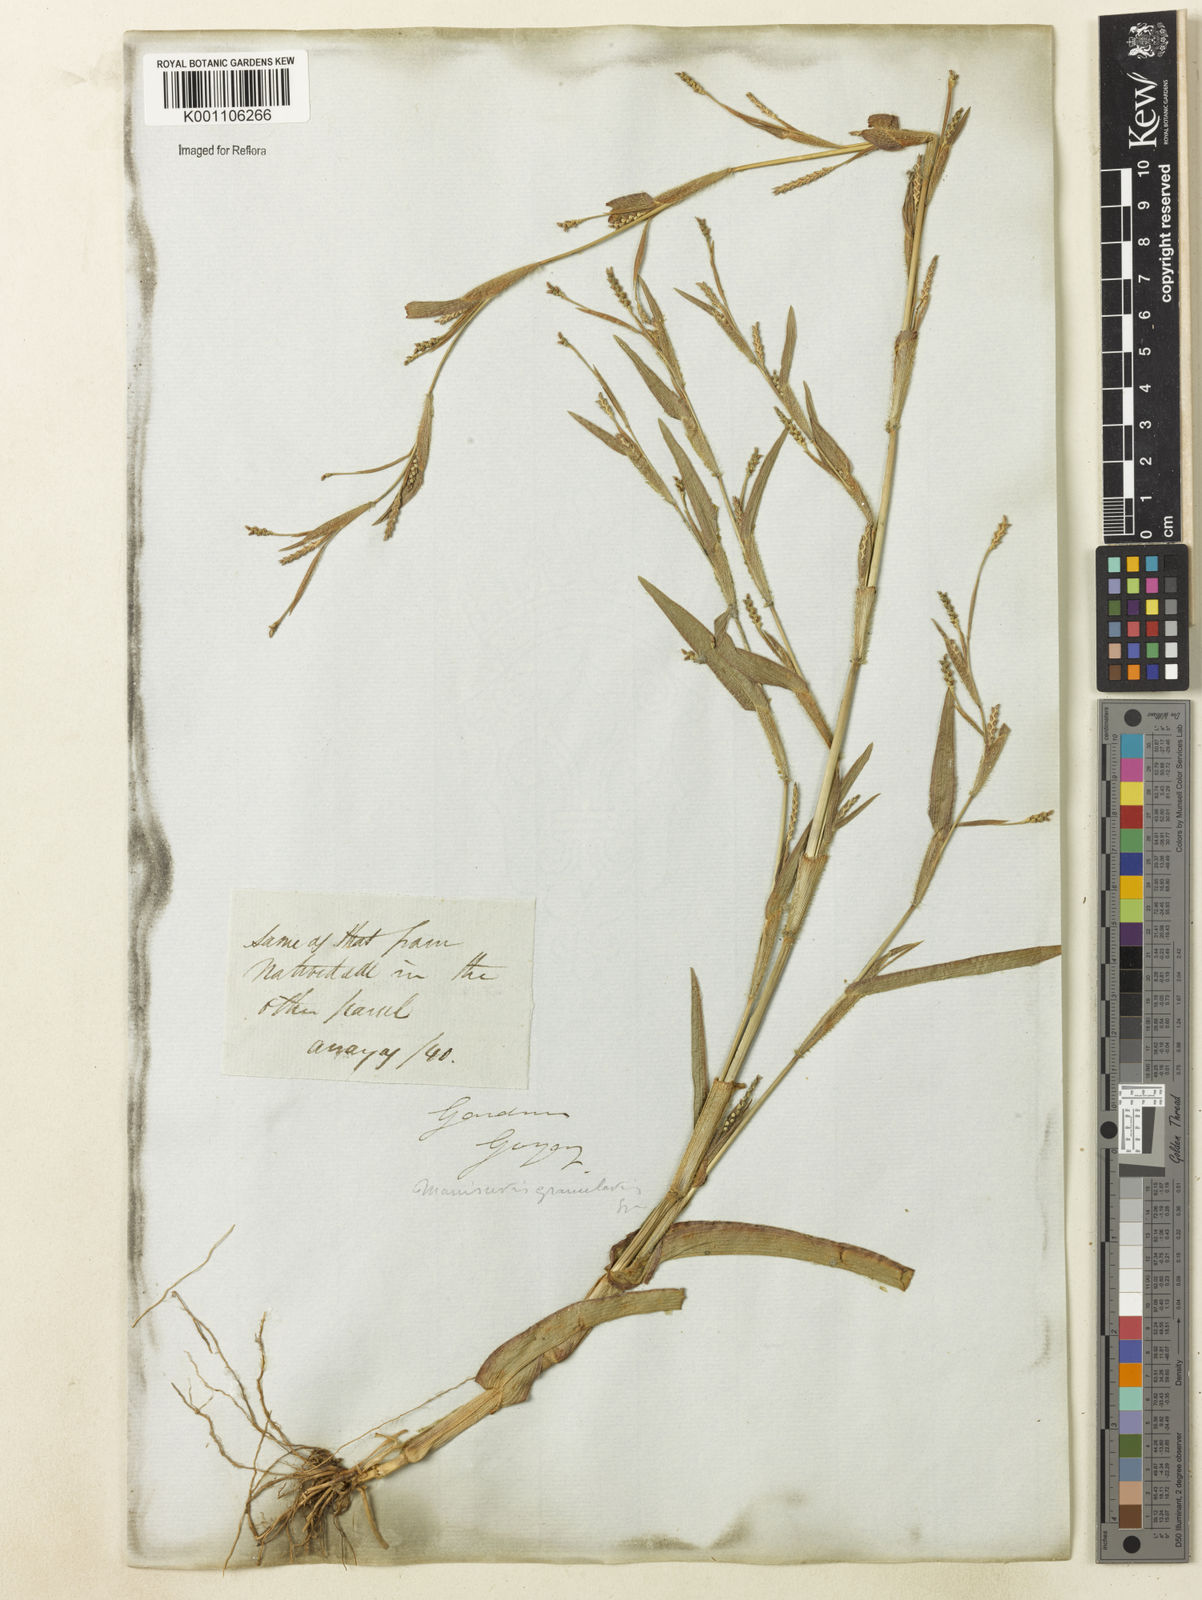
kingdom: Plantae
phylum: Tracheophyta
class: Liliopsida
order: Poales
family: Poaceae
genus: Hackelochloa
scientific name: Hackelochloa granularis
